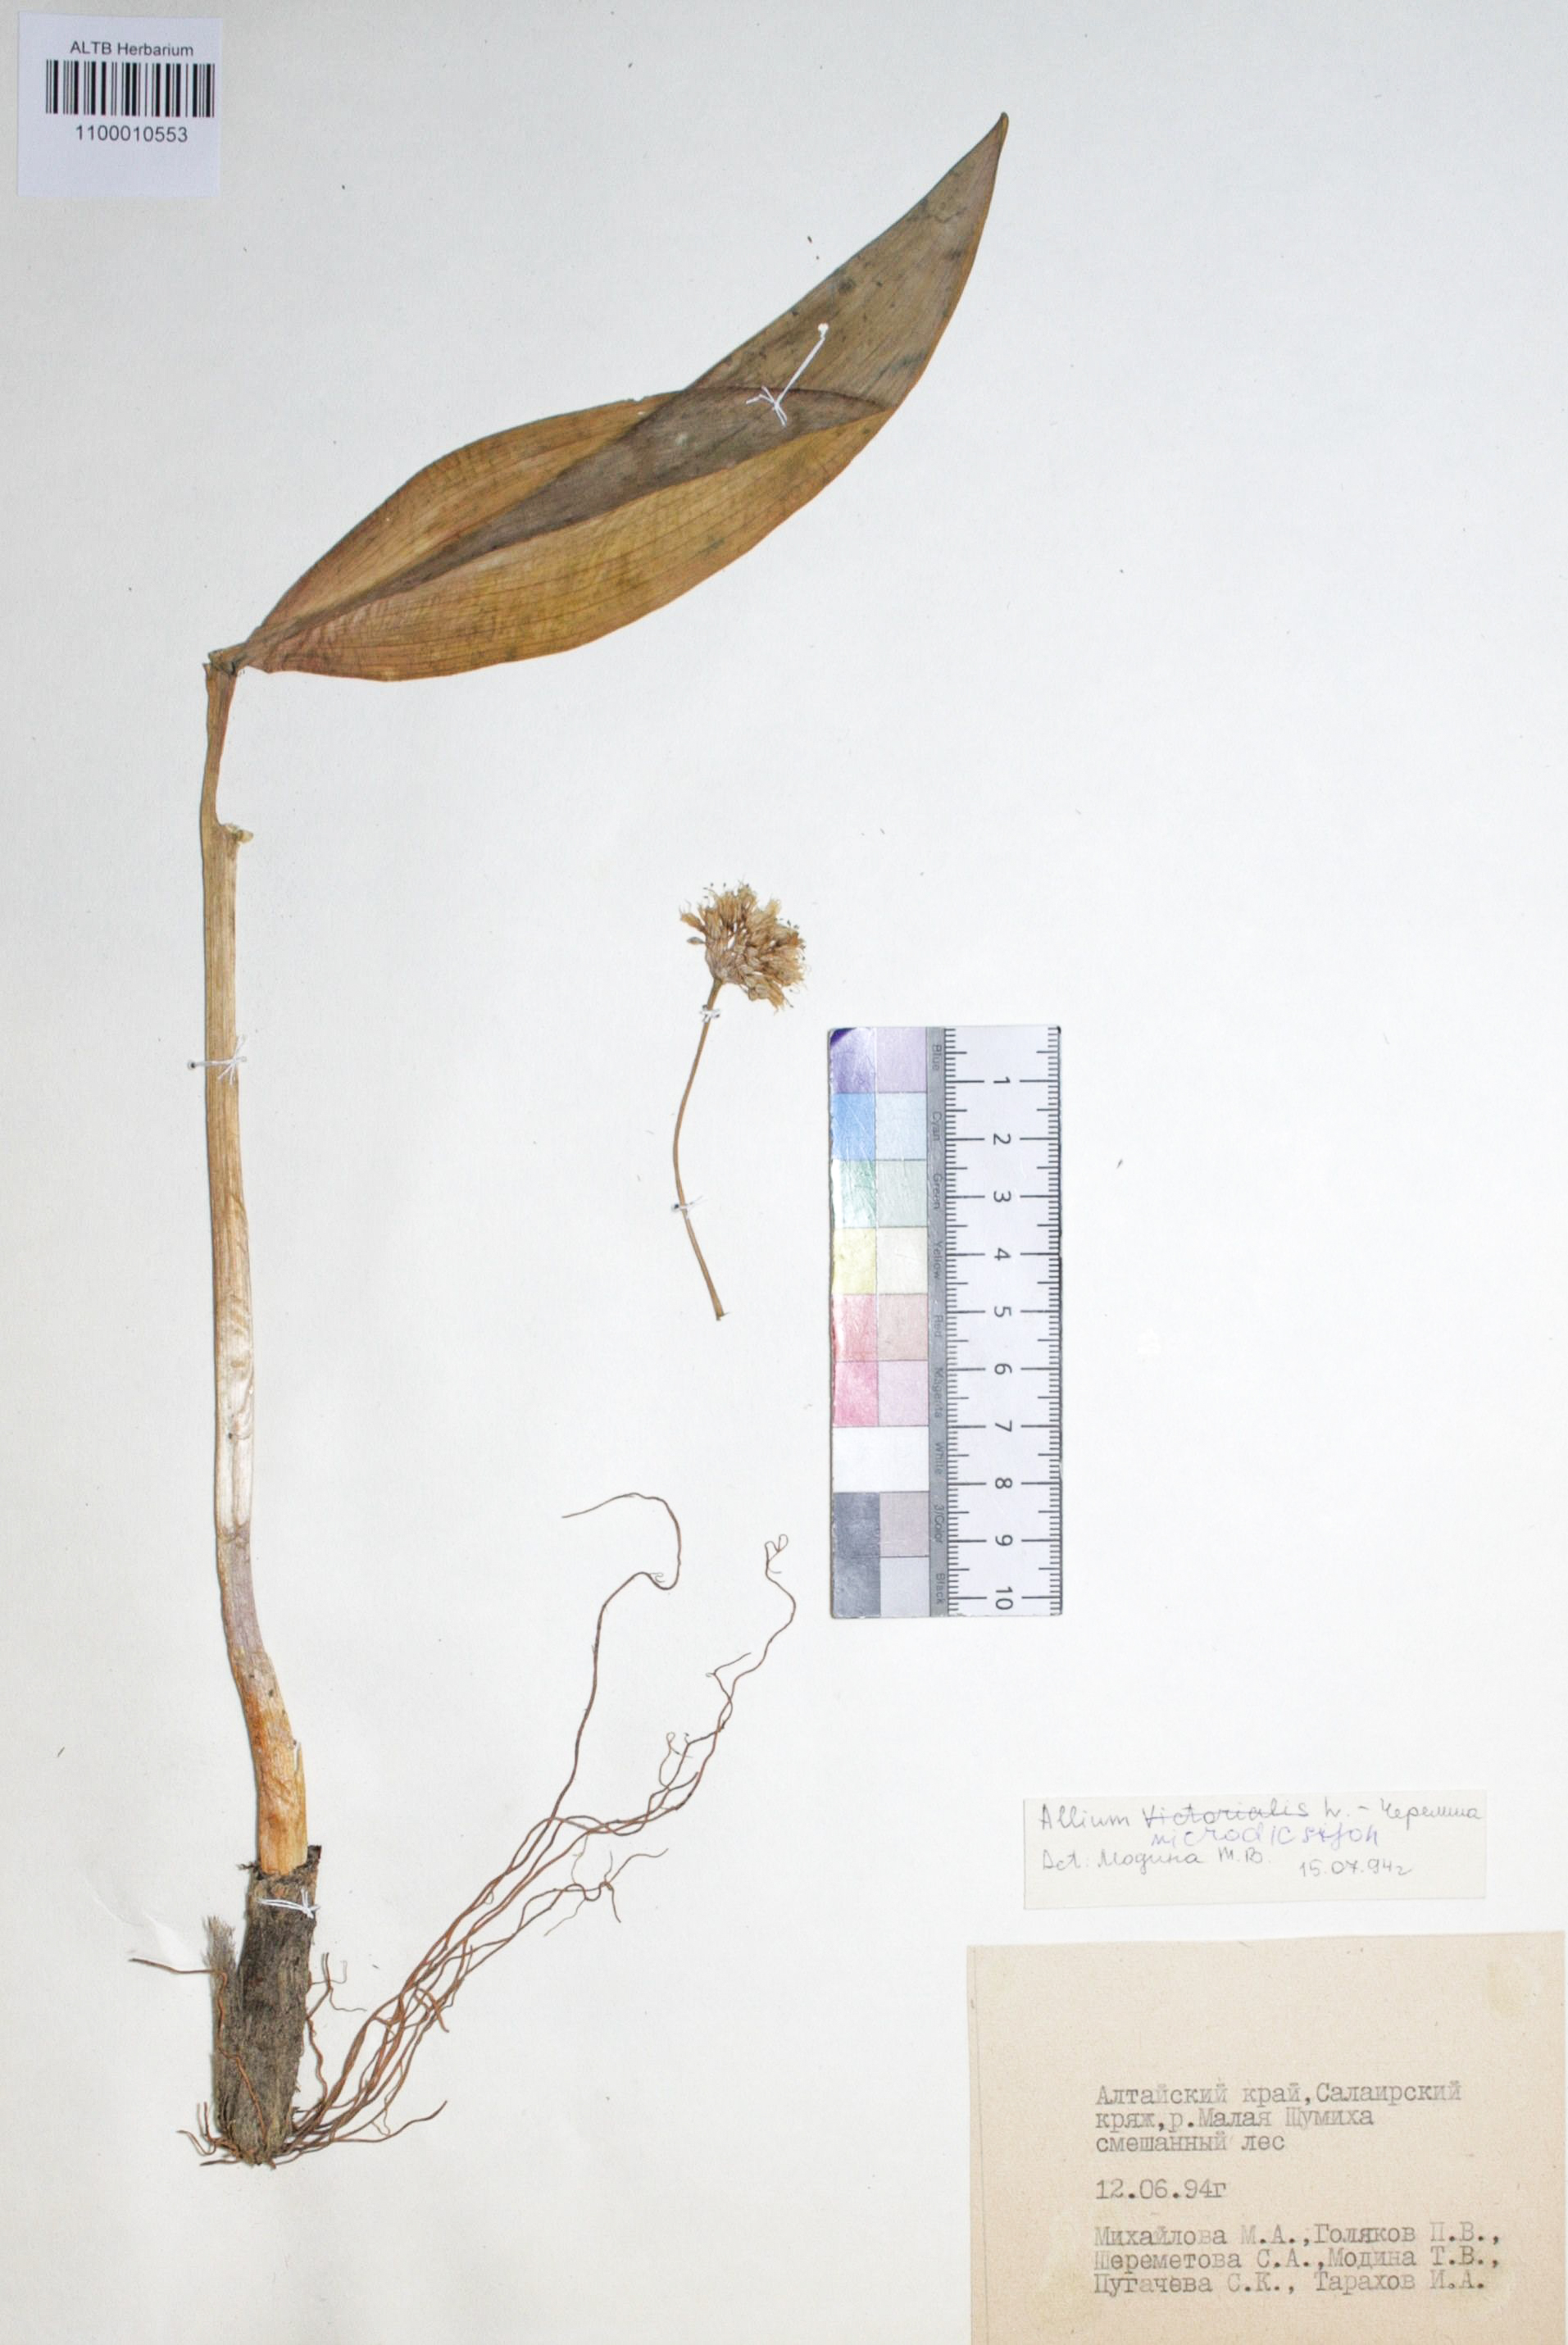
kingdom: Plantae
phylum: Tracheophyta
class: Liliopsida
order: Asparagales
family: Amaryllidaceae
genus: Allium
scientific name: Allium microdictyon
